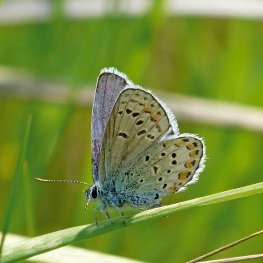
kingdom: Animalia
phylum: Arthropoda
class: Insecta
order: Lepidoptera
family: Lycaenidae
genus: Lycaeides
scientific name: Lycaeides melissa
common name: Melissa Blue
